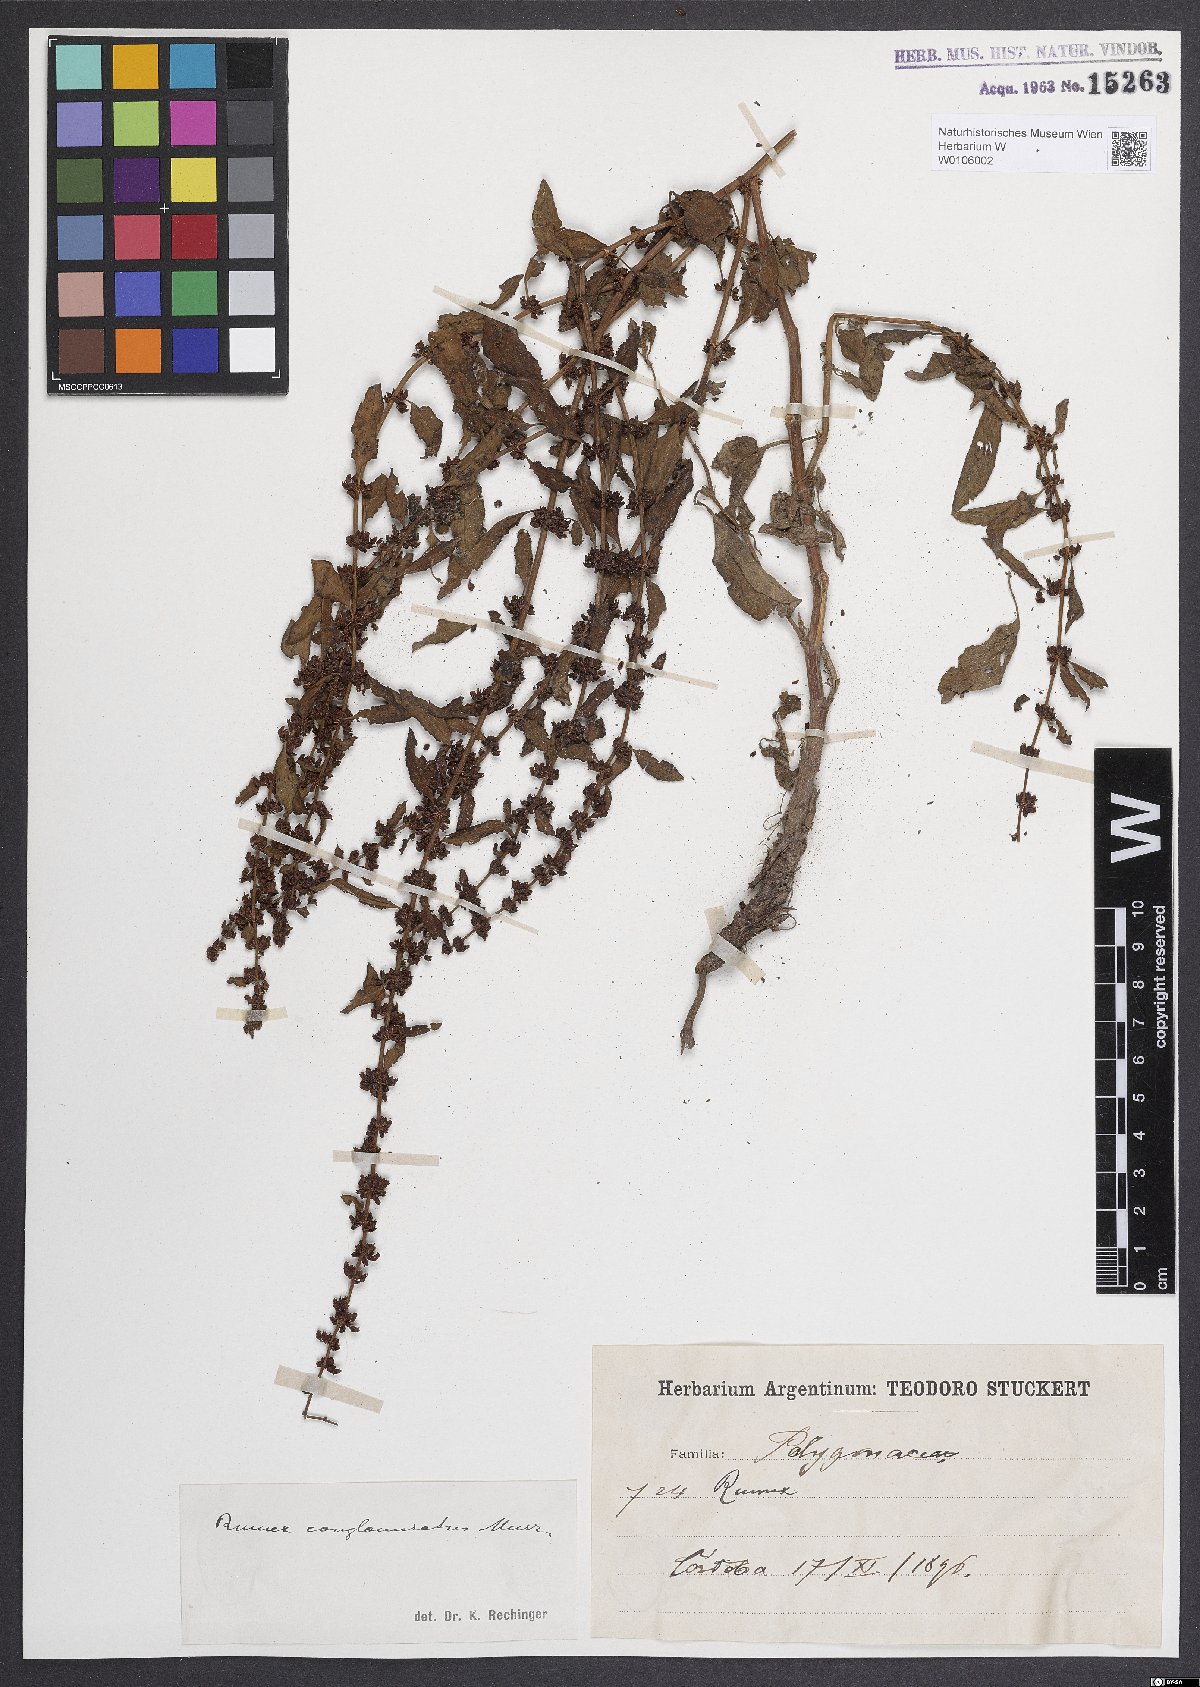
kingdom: Plantae
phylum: Tracheophyta
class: Magnoliopsida
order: Caryophyllales
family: Polygonaceae
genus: Rumex
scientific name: Rumex conglomeratus
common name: Clustered dock
